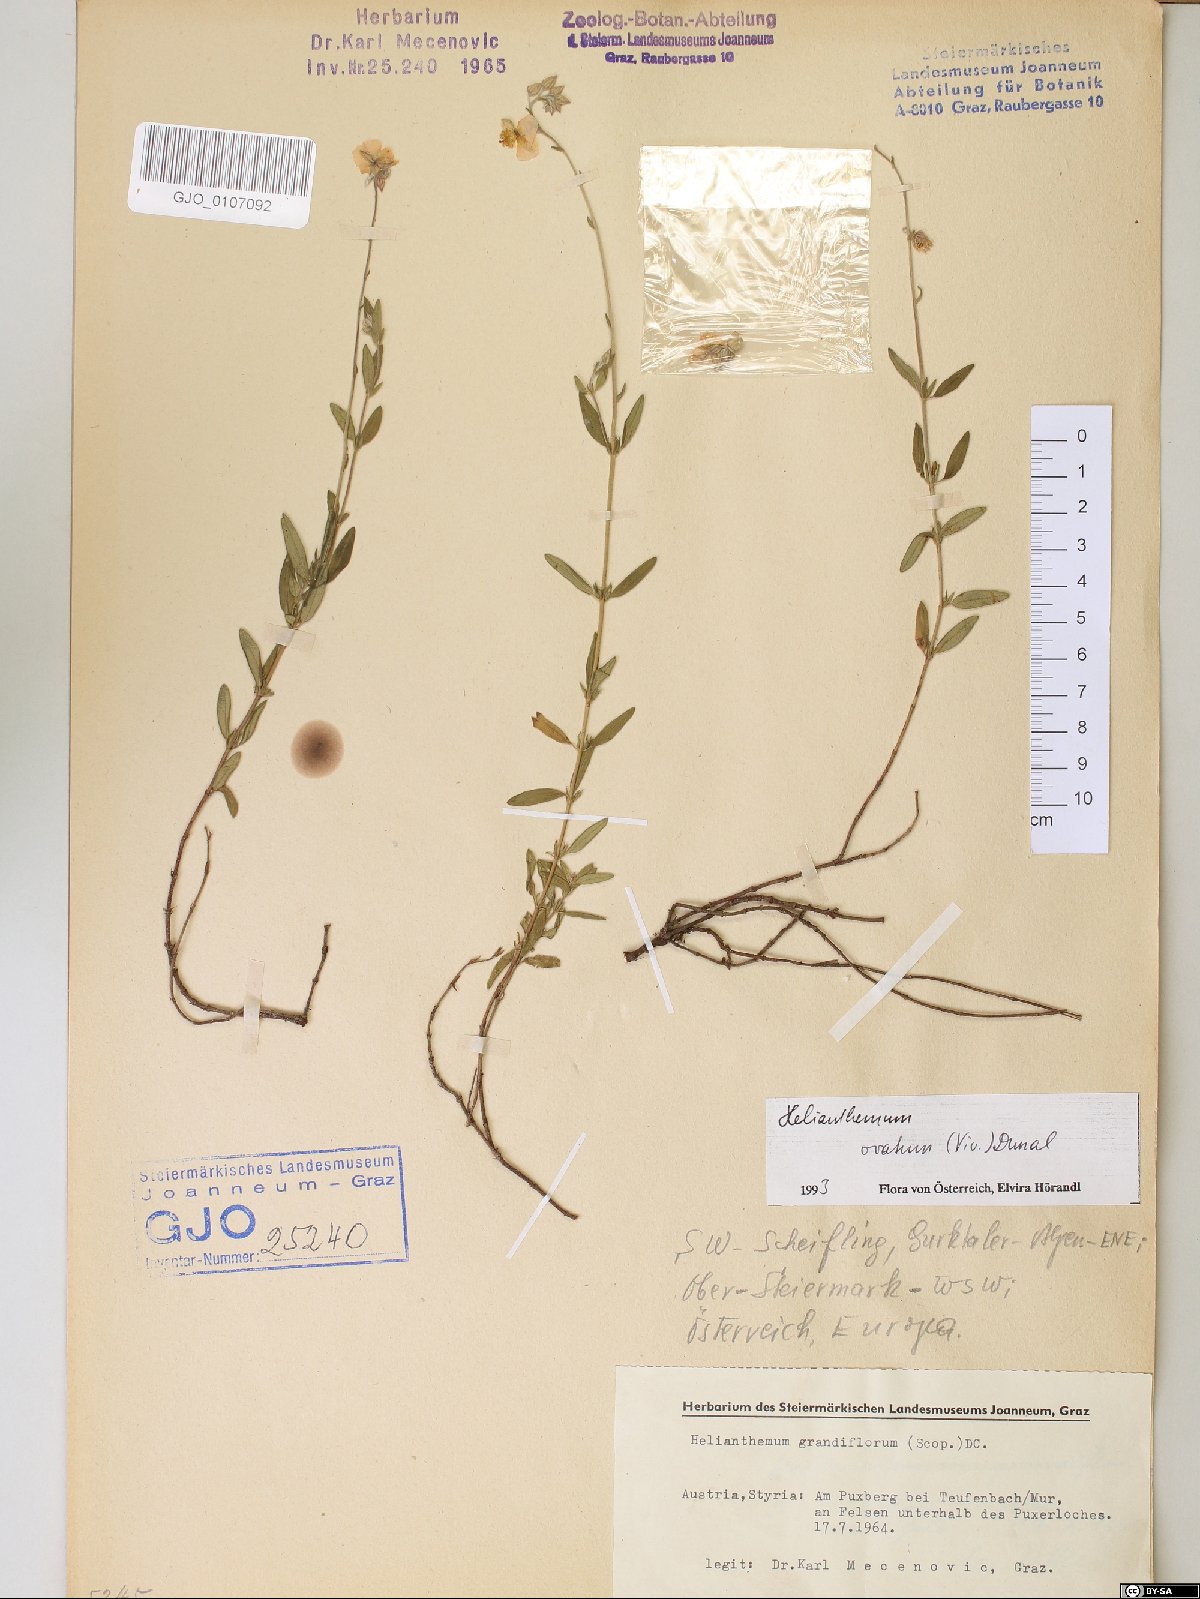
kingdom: Plantae
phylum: Tracheophyta
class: Magnoliopsida
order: Malvales
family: Cistaceae
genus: Helianthemum
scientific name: Helianthemum nummularium
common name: Common rock-rose
